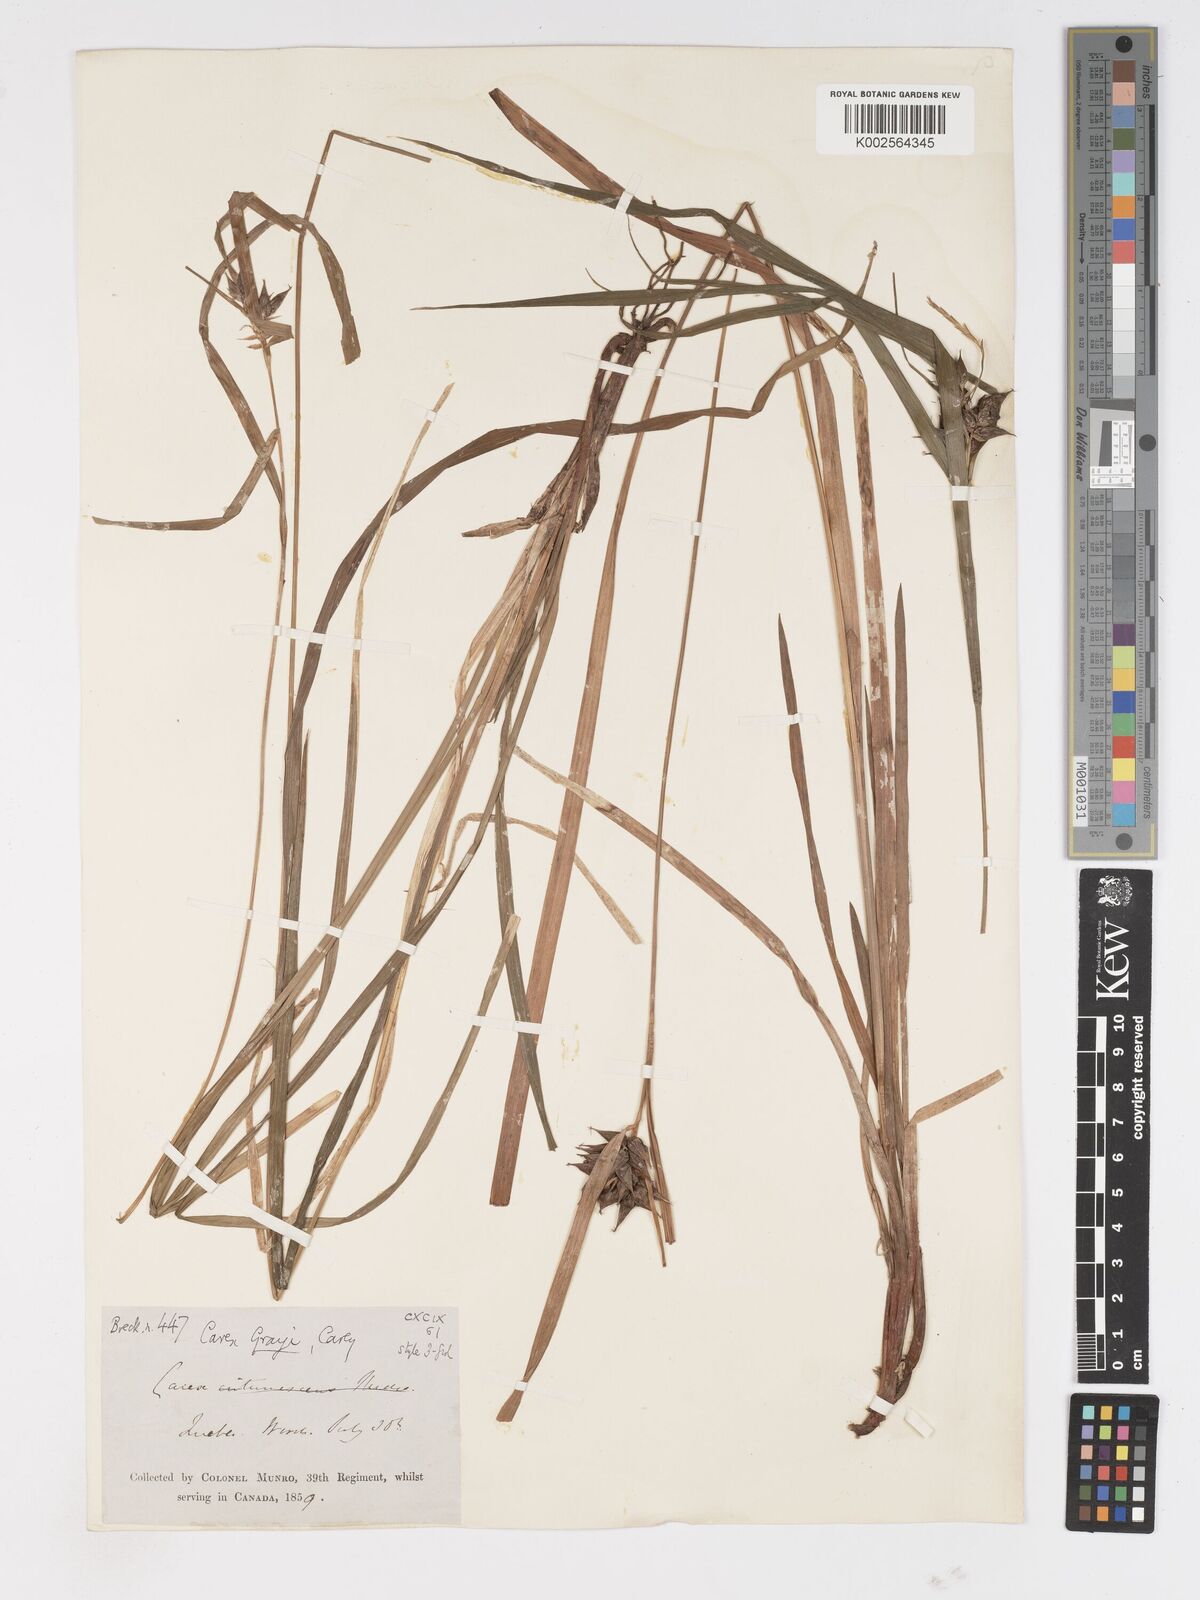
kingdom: Plantae
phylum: Tracheophyta
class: Liliopsida
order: Poales
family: Cyperaceae
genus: Carex
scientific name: Carex grayi
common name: Asa gray's sedge
